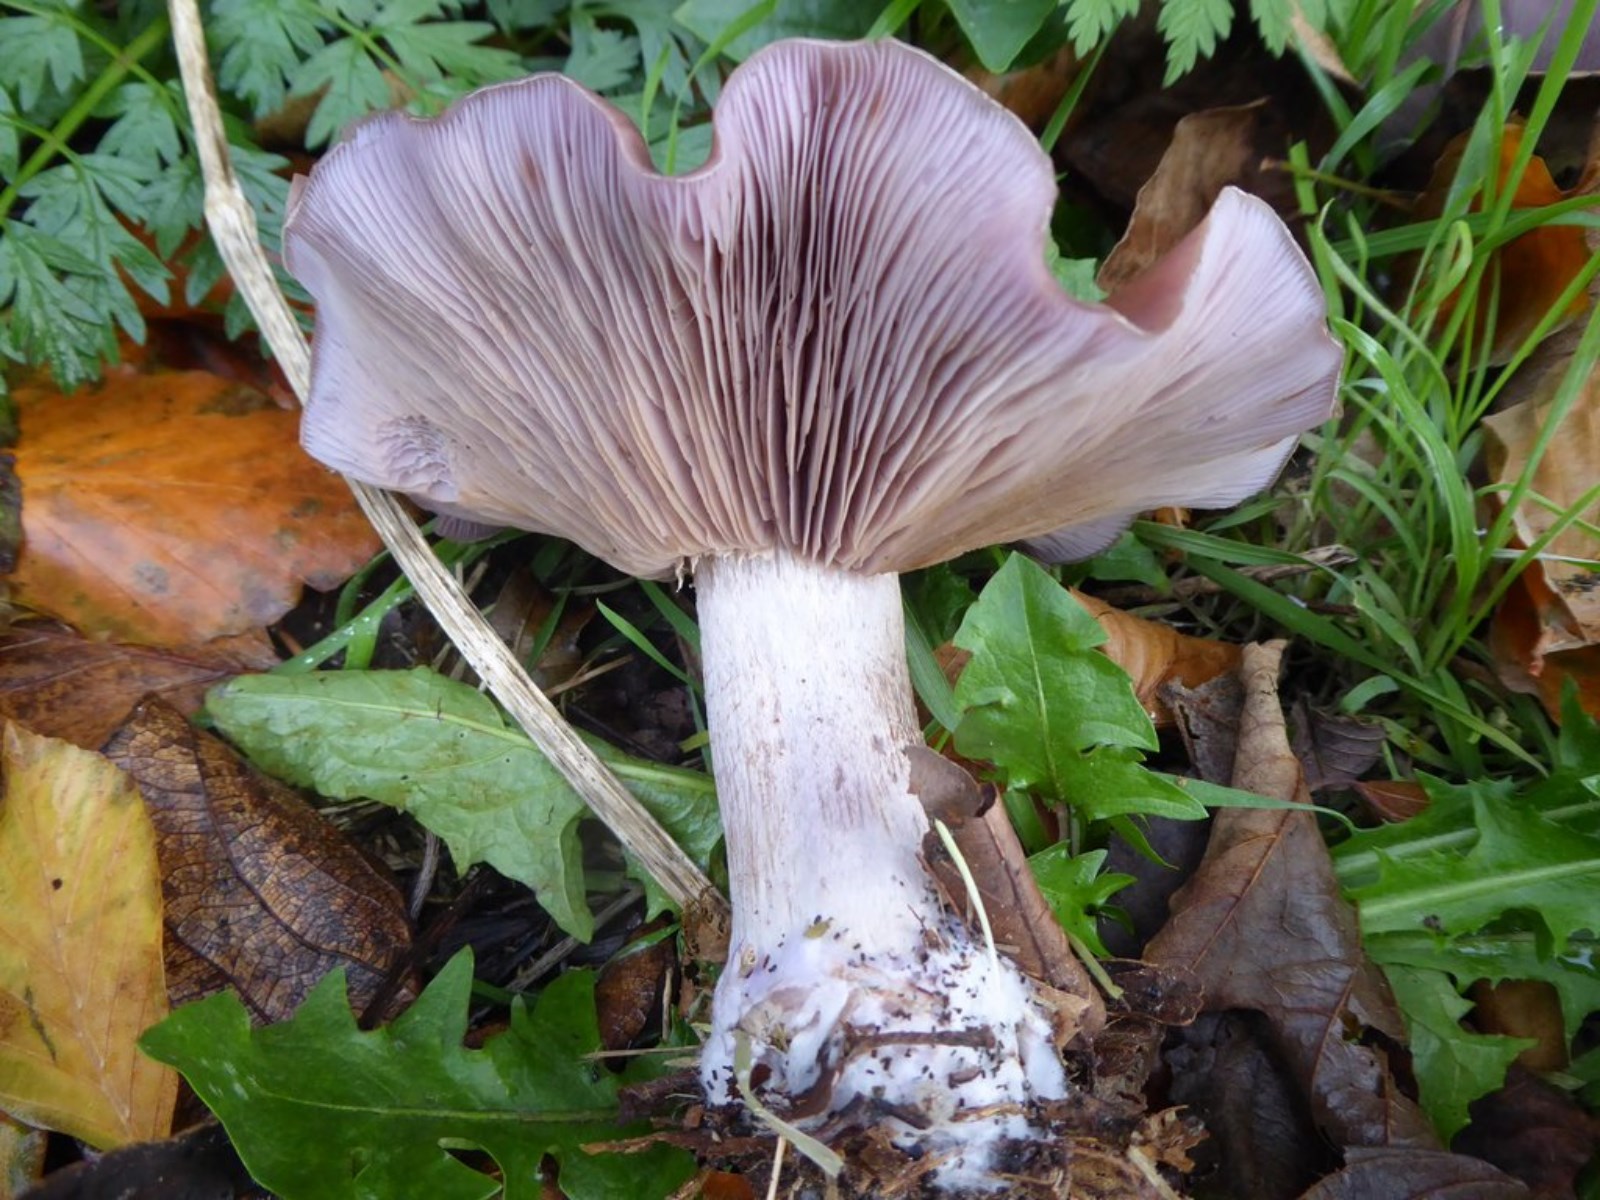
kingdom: Fungi
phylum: Basidiomycota
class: Agaricomycetes
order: Agaricales
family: Tricholomataceae
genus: Lepista
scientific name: Lepista nuda
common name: violet hekseringshat
